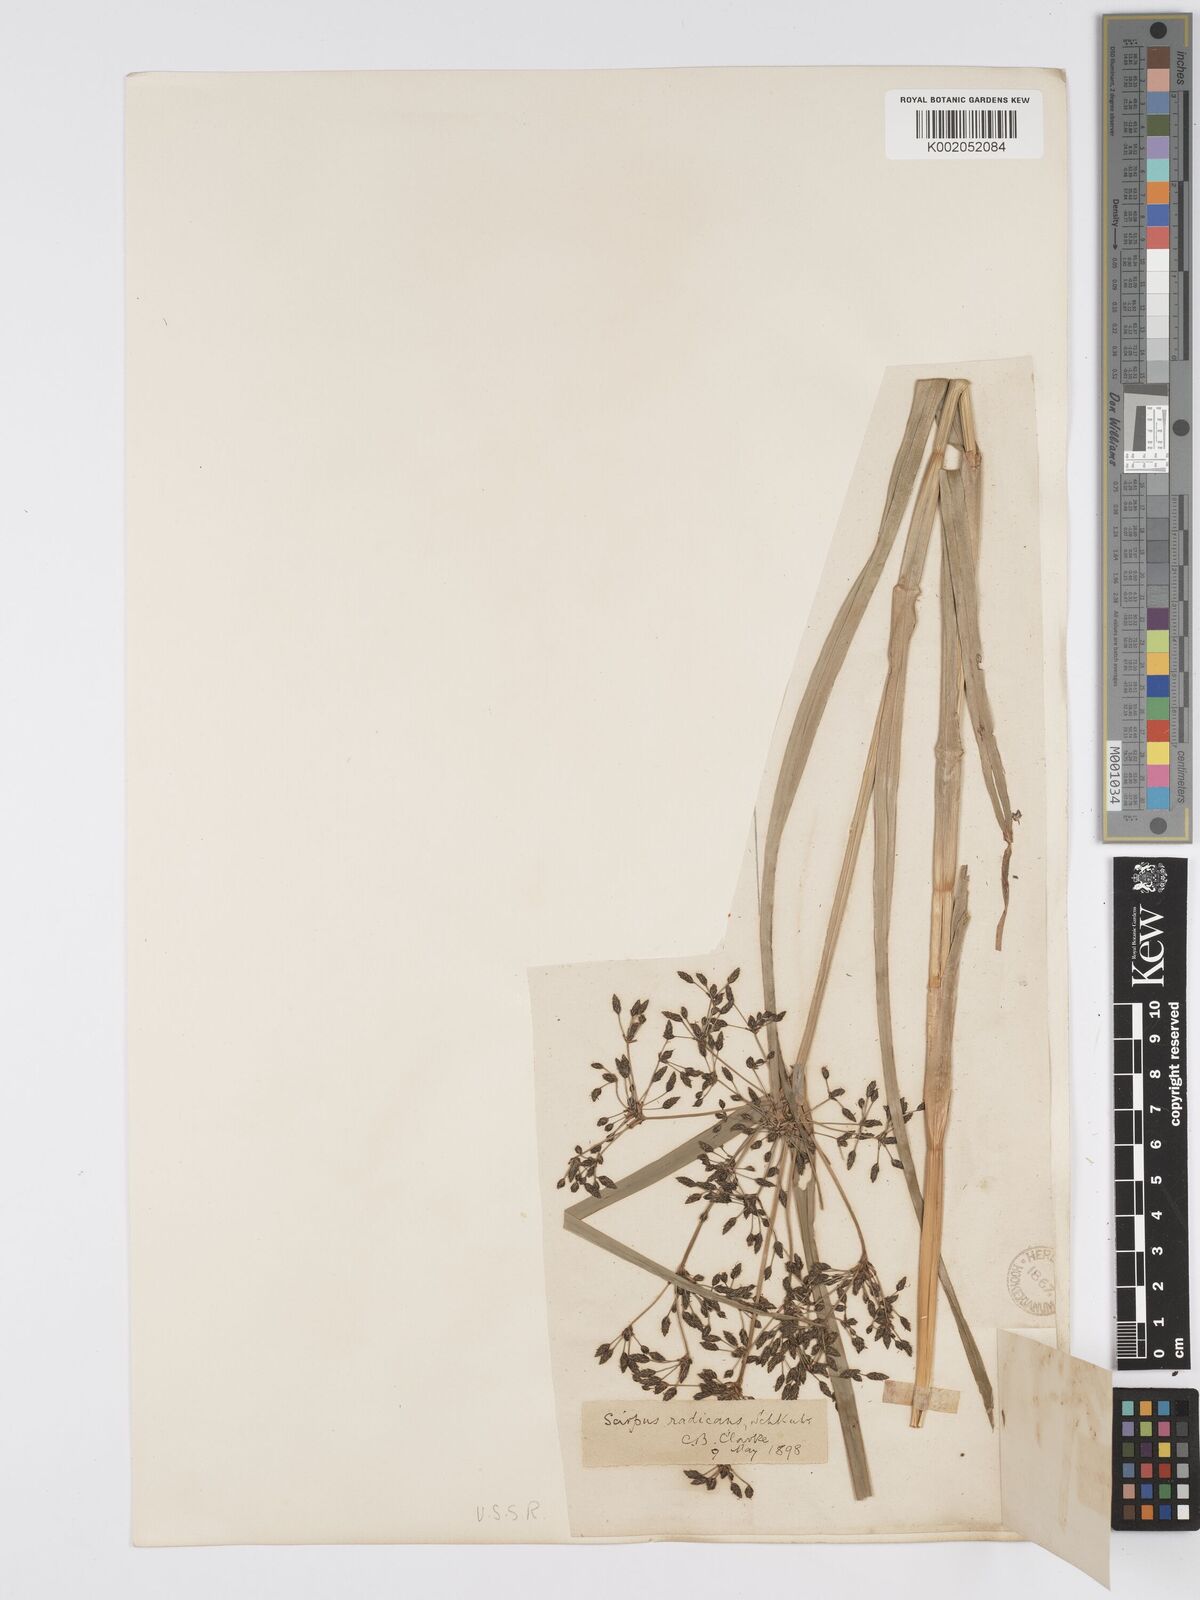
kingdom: Plantae
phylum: Tracheophyta
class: Liliopsida
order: Poales
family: Cyperaceae
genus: Scirpus
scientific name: Scirpus radicans
